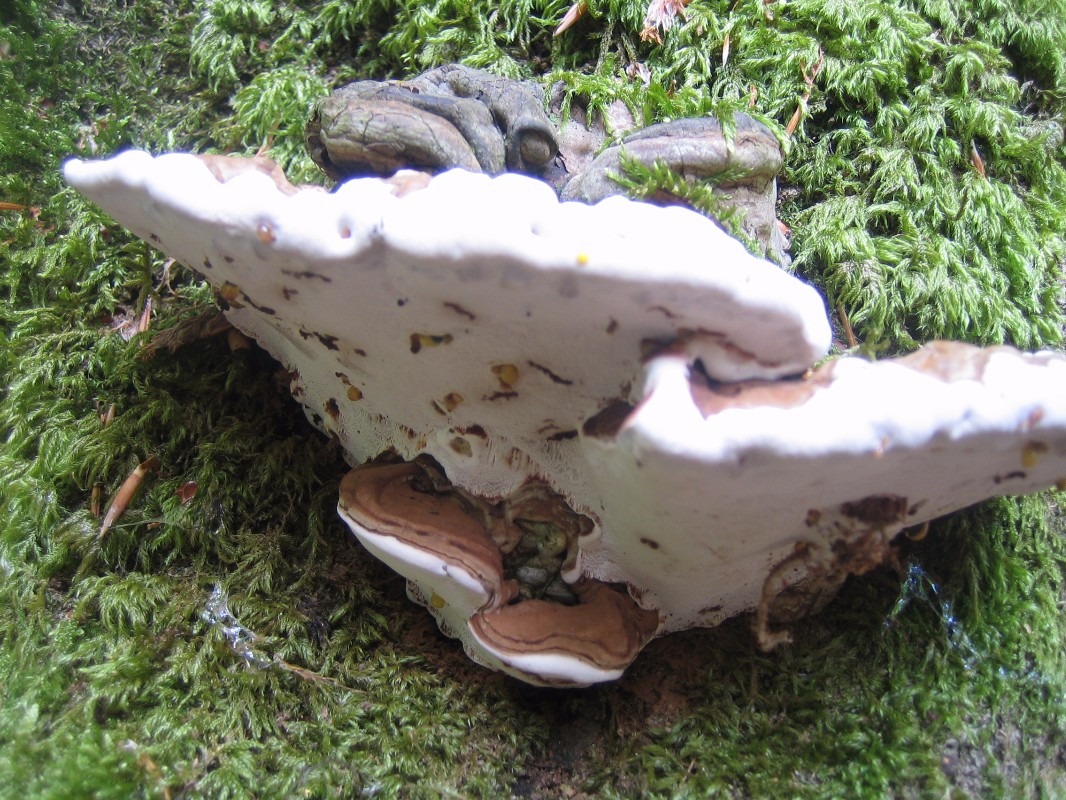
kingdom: Fungi
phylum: Basidiomycota
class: Agaricomycetes
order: Polyporales
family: Polyporaceae
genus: Ganoderma
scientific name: Ganoderma applanatum
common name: flad lakporesvamp
